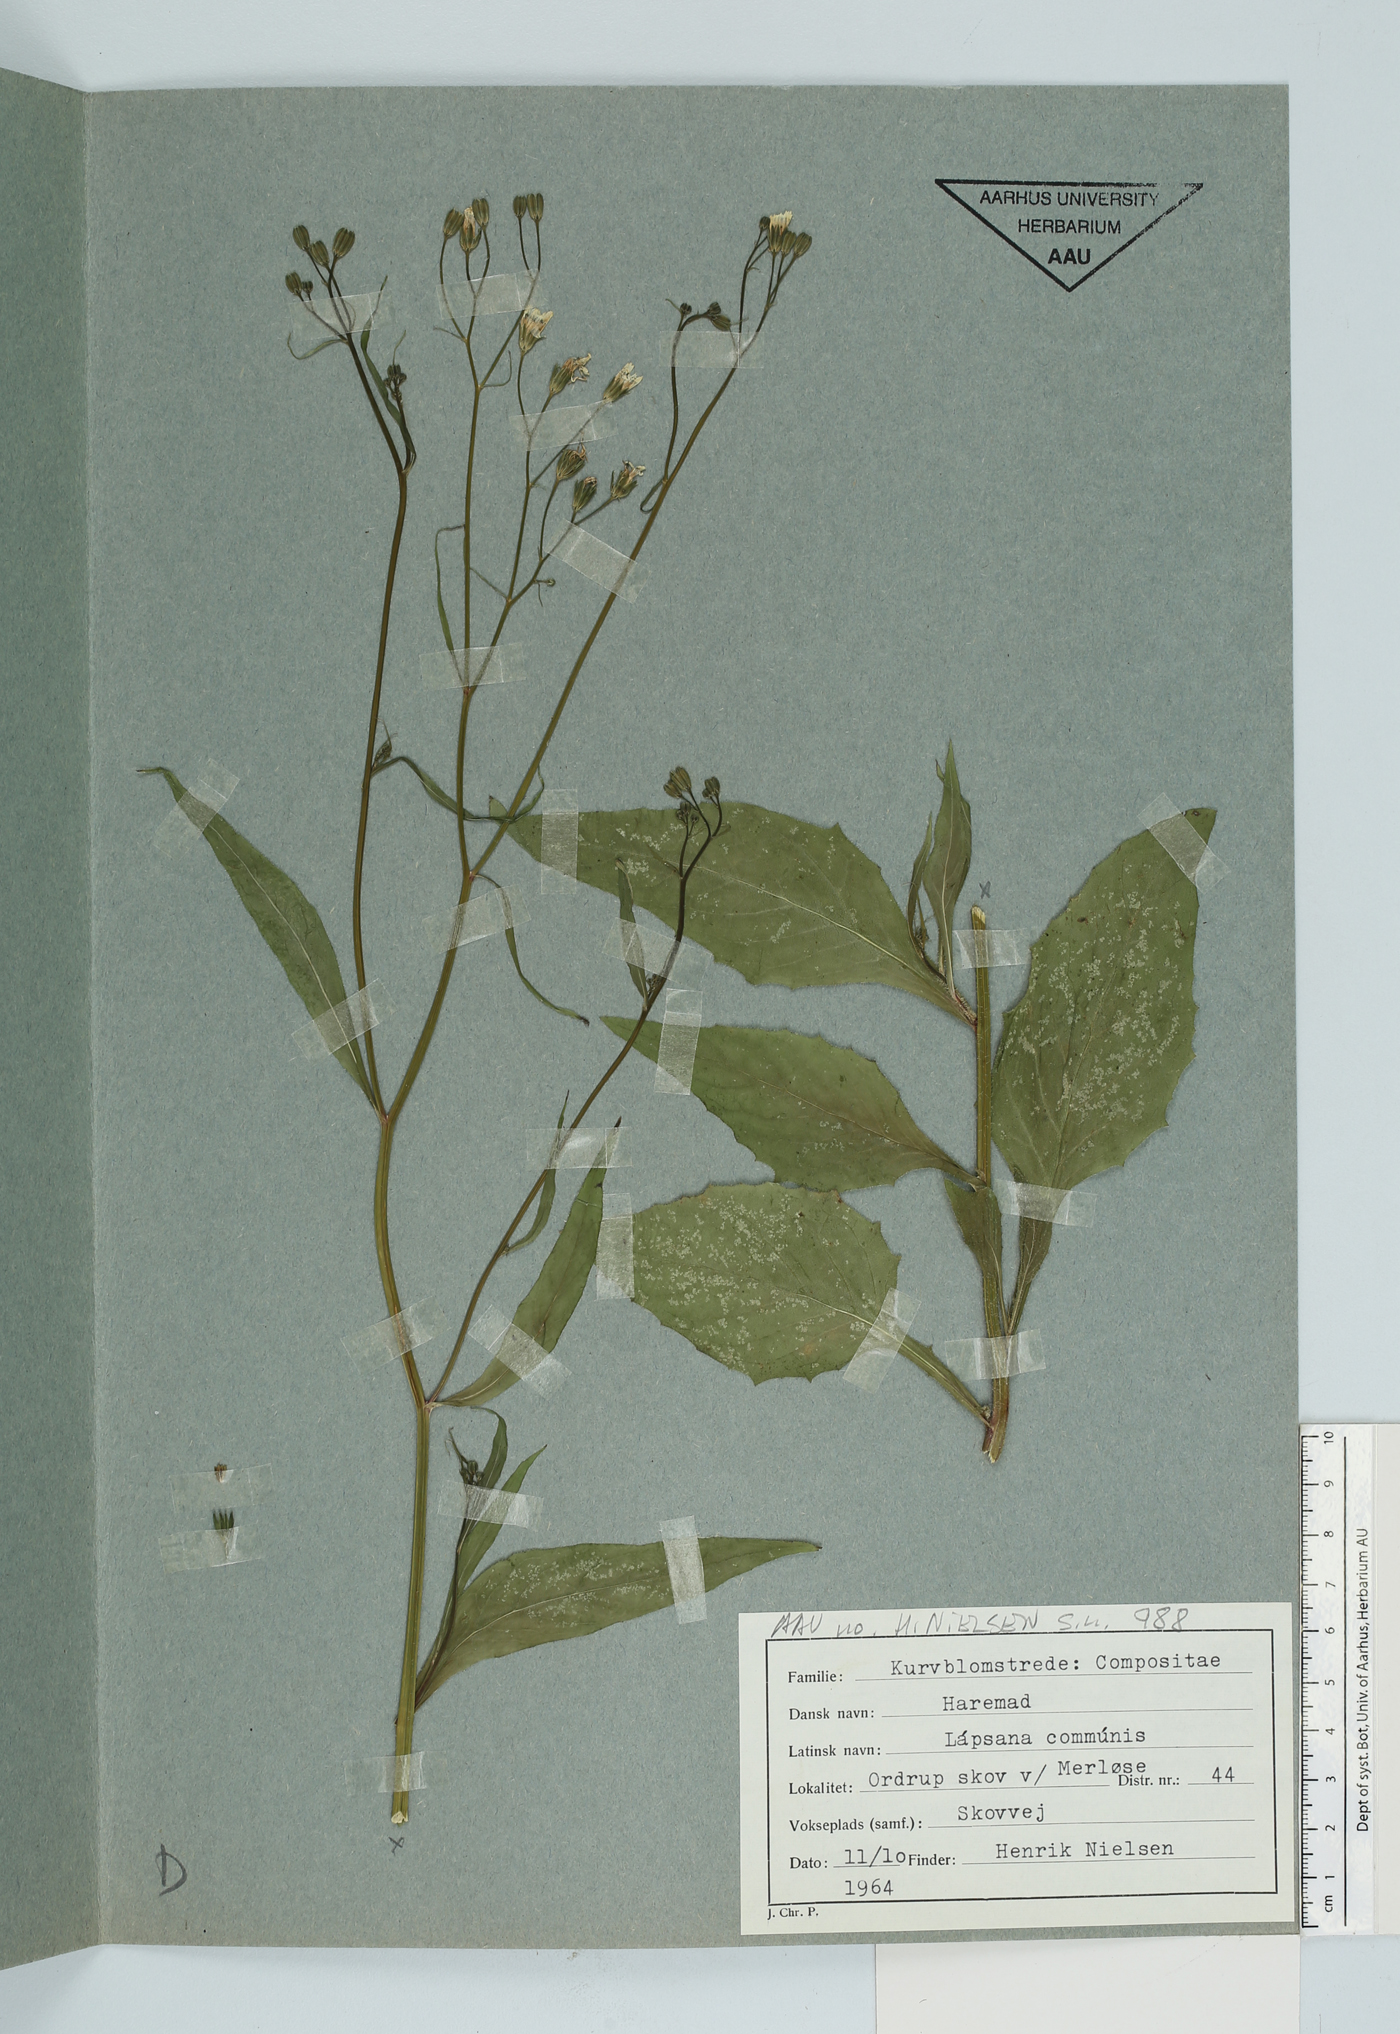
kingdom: Plantae
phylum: Tracheophyta
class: Magnoliopsida
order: Asterales
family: Asteraceae
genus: Lapsana
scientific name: Lapsana communis
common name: Nipplewort
